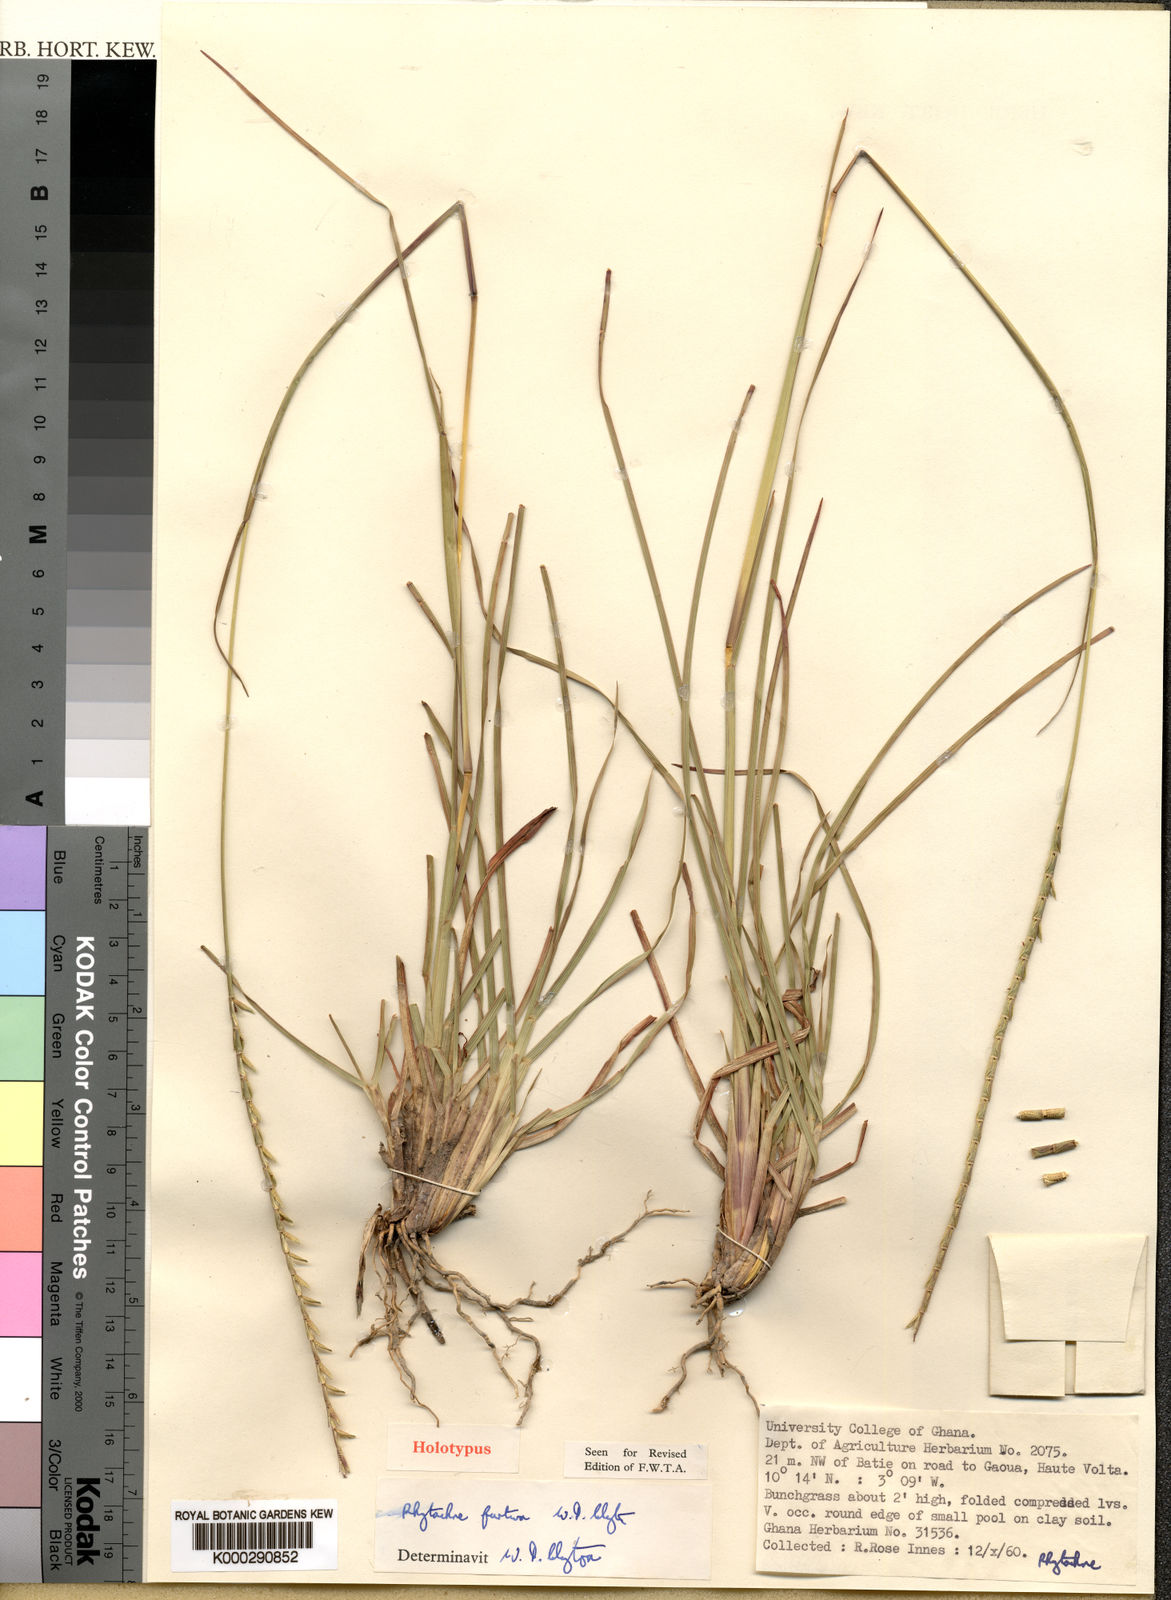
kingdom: Plantae
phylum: Tracheophyta
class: Liliopsida
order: Poales
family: Poaceae
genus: Rhytachne
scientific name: Rhytachne
